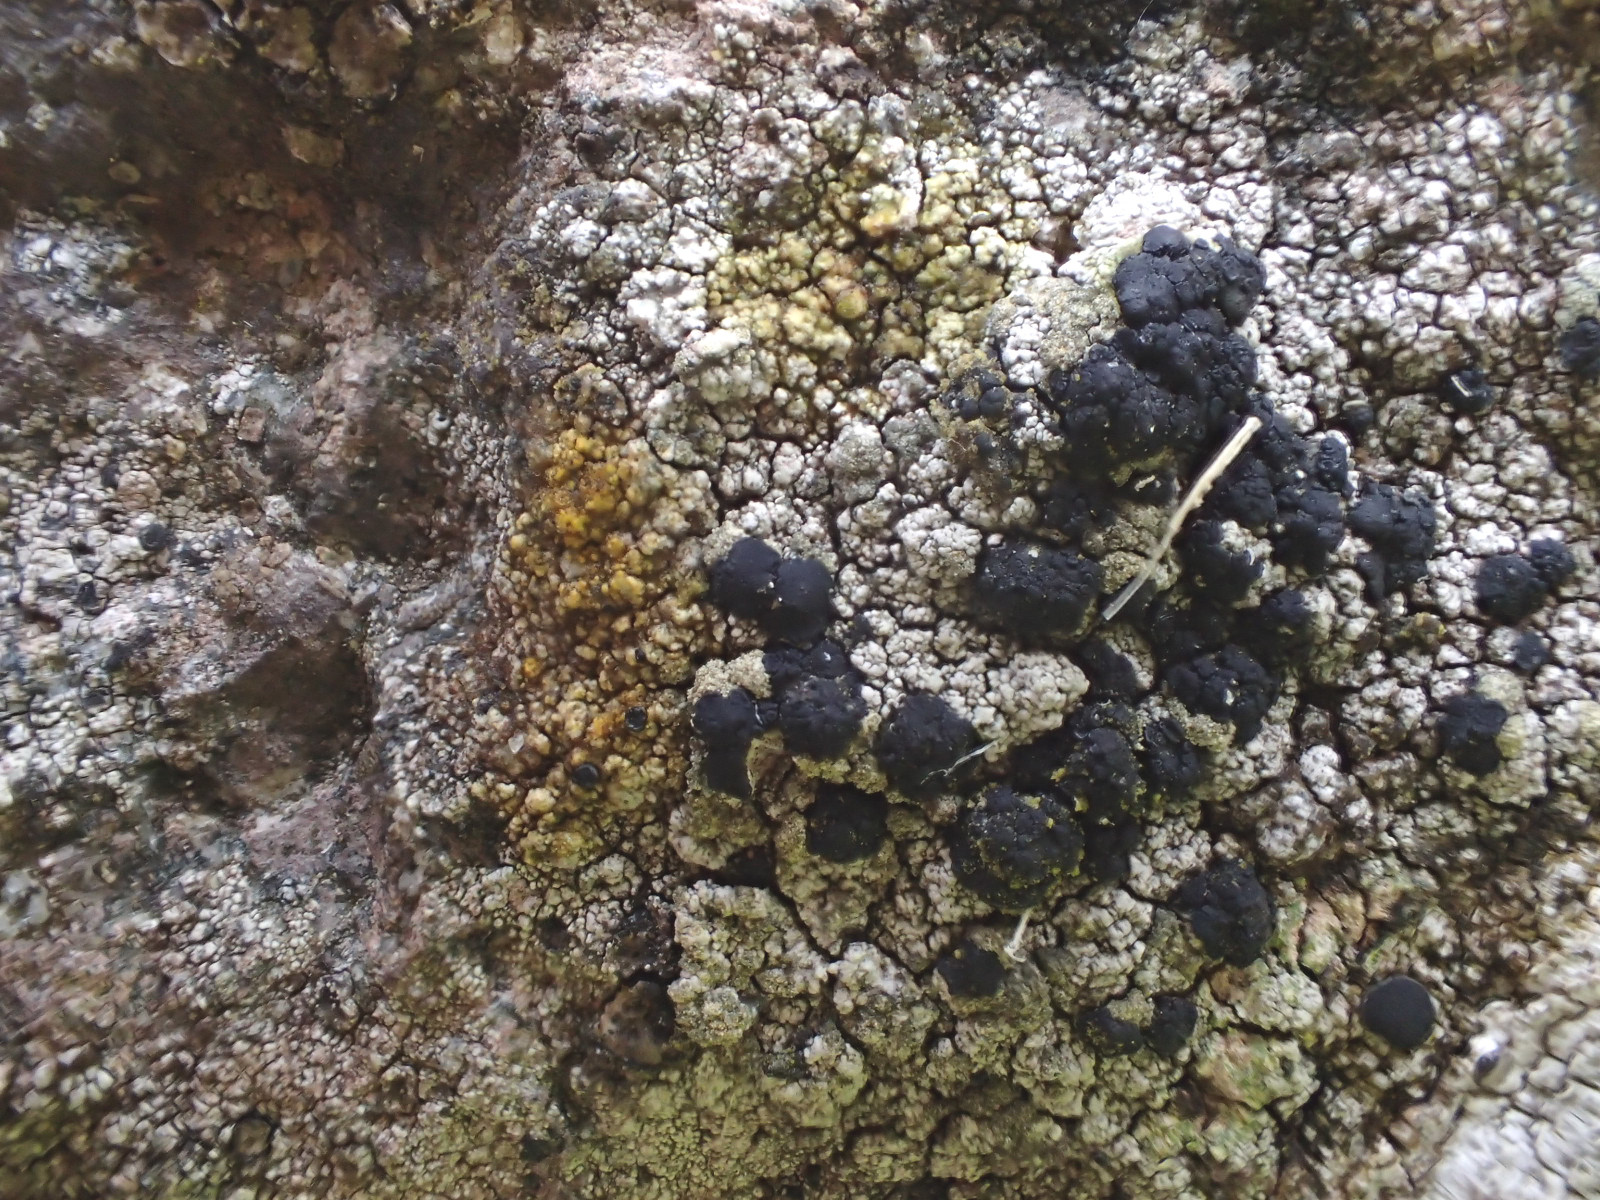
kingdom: Fungi
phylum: Ascomycota
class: Lecanoromycetes
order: Lecanorales
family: Lecanoraceae
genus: Lecidella
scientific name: Lecidella scabra
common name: skurvet skivelav
